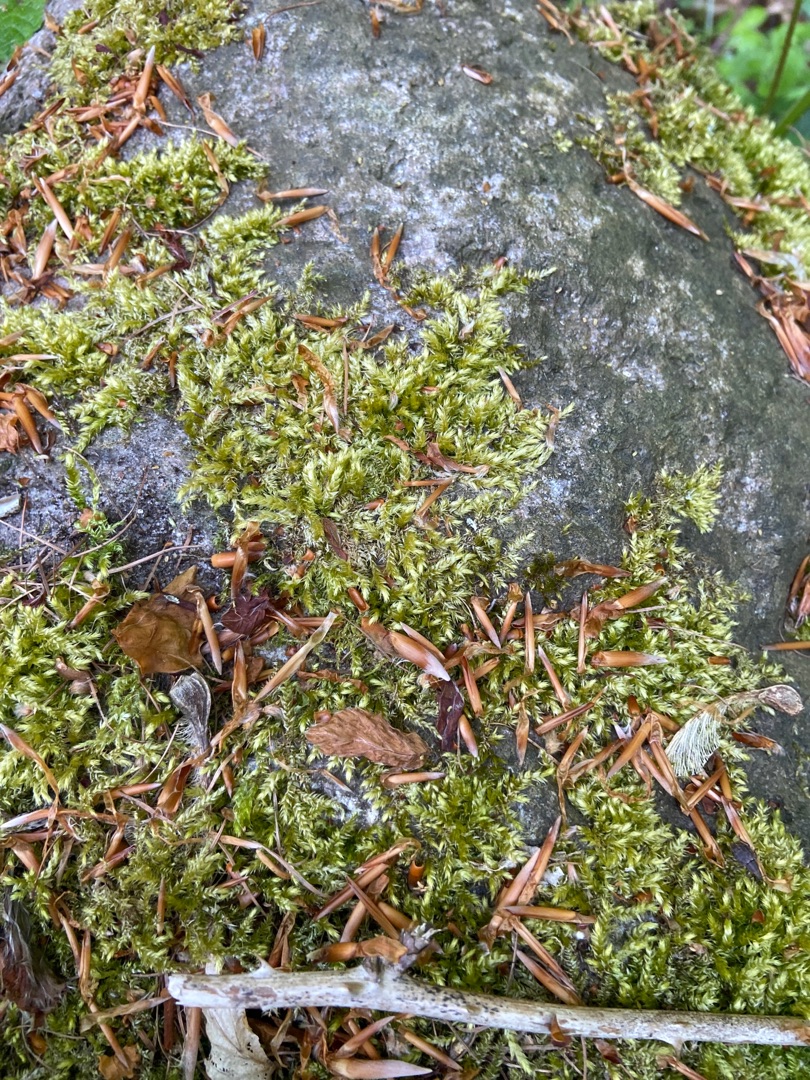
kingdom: Plantae
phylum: Bryophyta
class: Bryopsida
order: Hypnales
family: Brachytheciaceae
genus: Brachythecium
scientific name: Brachythecium rutabulum
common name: Almindelig kortkapsel
